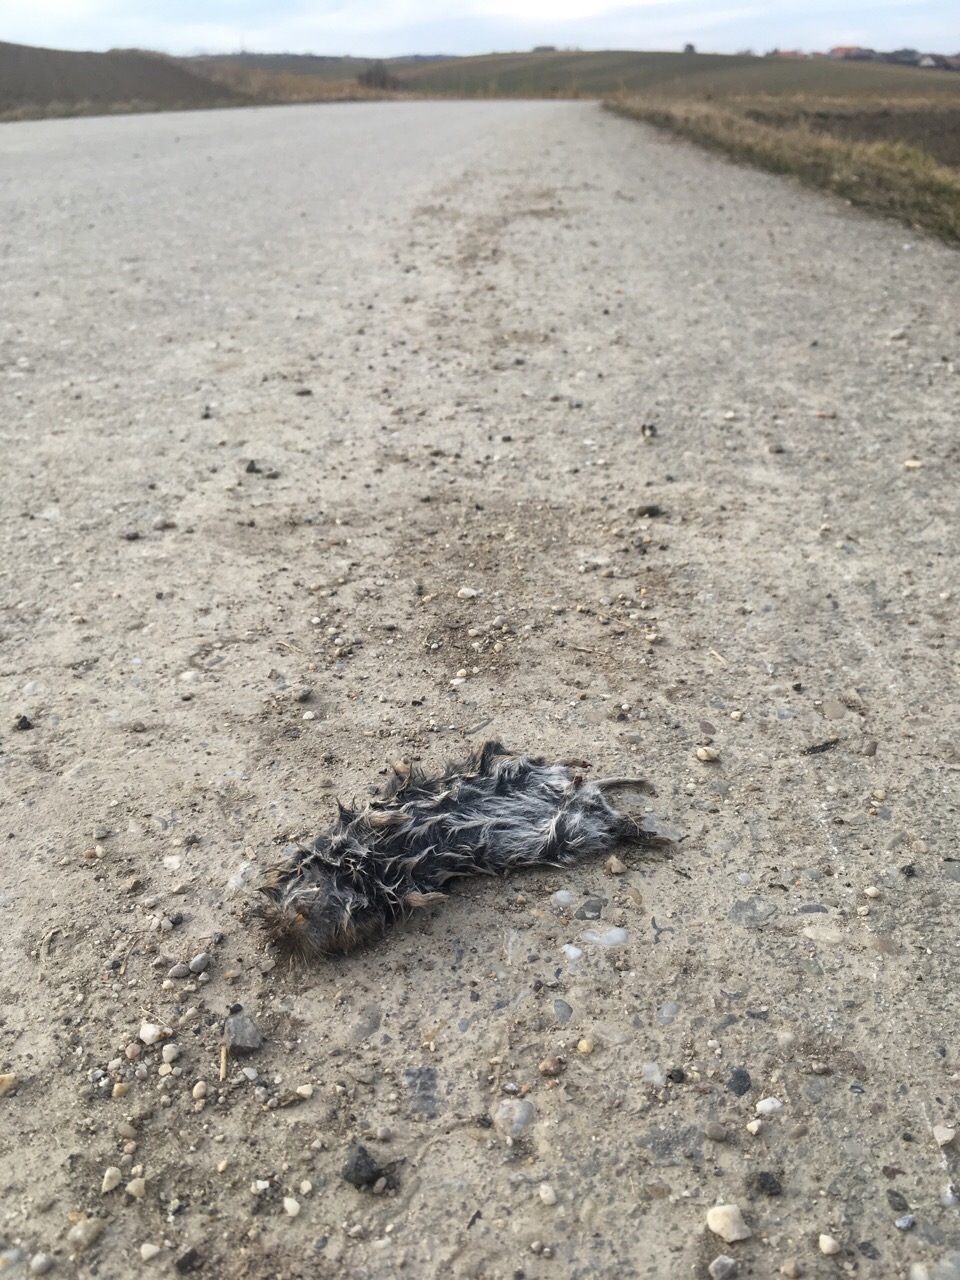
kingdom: Animalia
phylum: Chordata
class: Mammalia
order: Rodentia
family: Cricetidae
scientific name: Cricetidae
